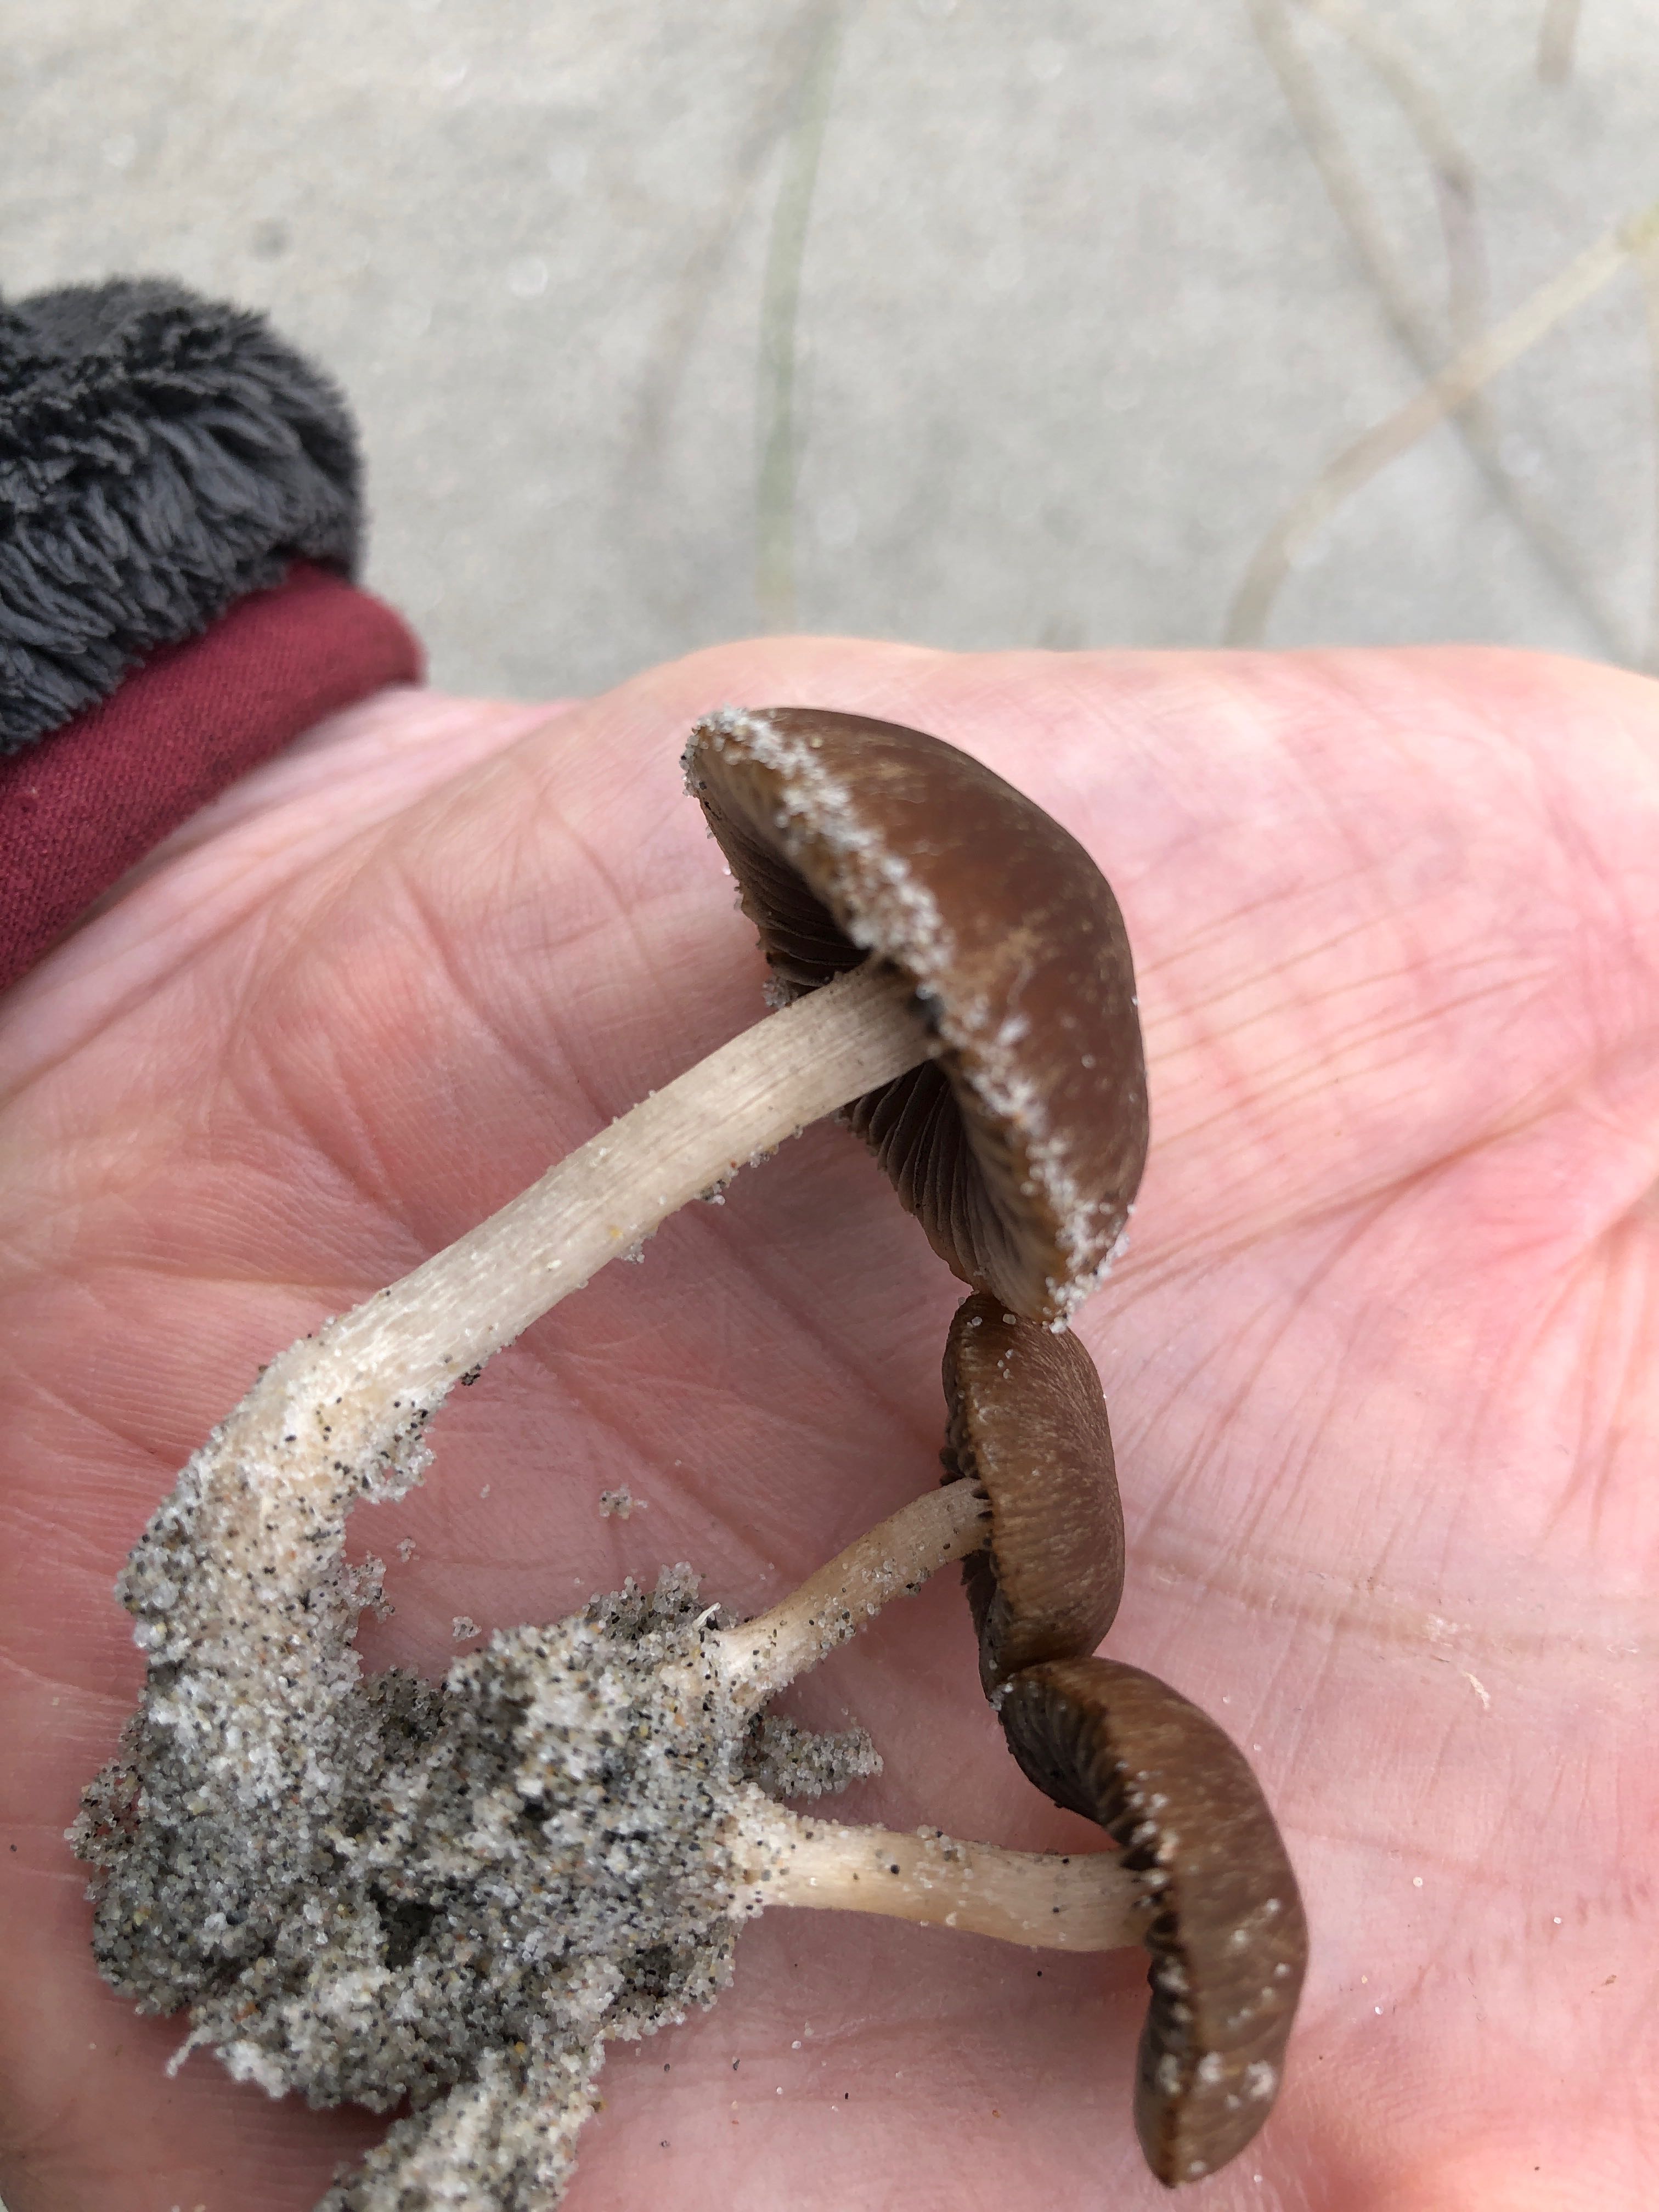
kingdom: Fungi
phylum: Basidiomycota
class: Agaricomycetes
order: Agaricales
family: Psathyrellaceae
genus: Psathyrella
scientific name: Psathyrella ammophila
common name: klit-mørkhat
